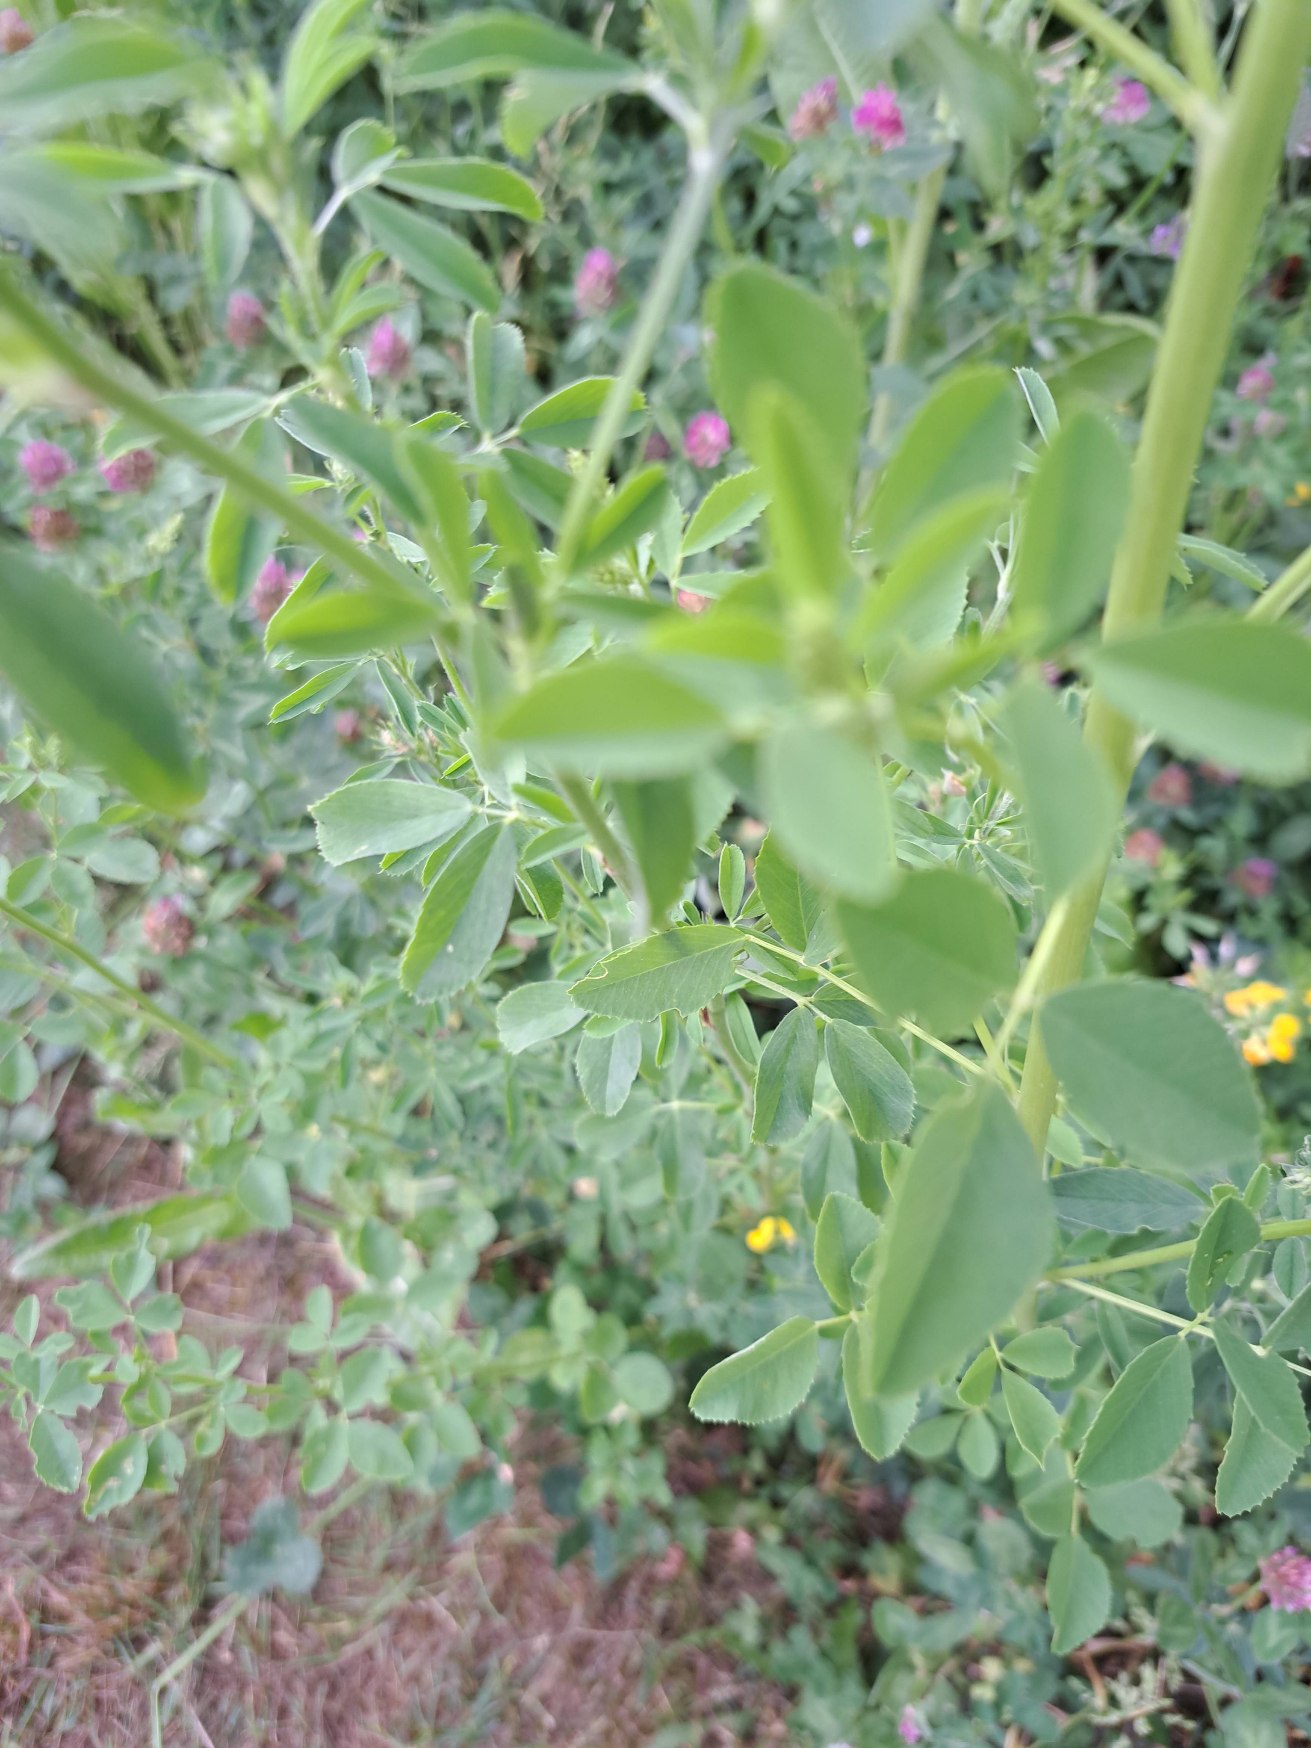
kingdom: Plantae
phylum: Tracheophyta
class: Magnoliopsida
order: Fabales
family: Fabaceae
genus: Medicago
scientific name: Medicago sativa
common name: Lucerne
